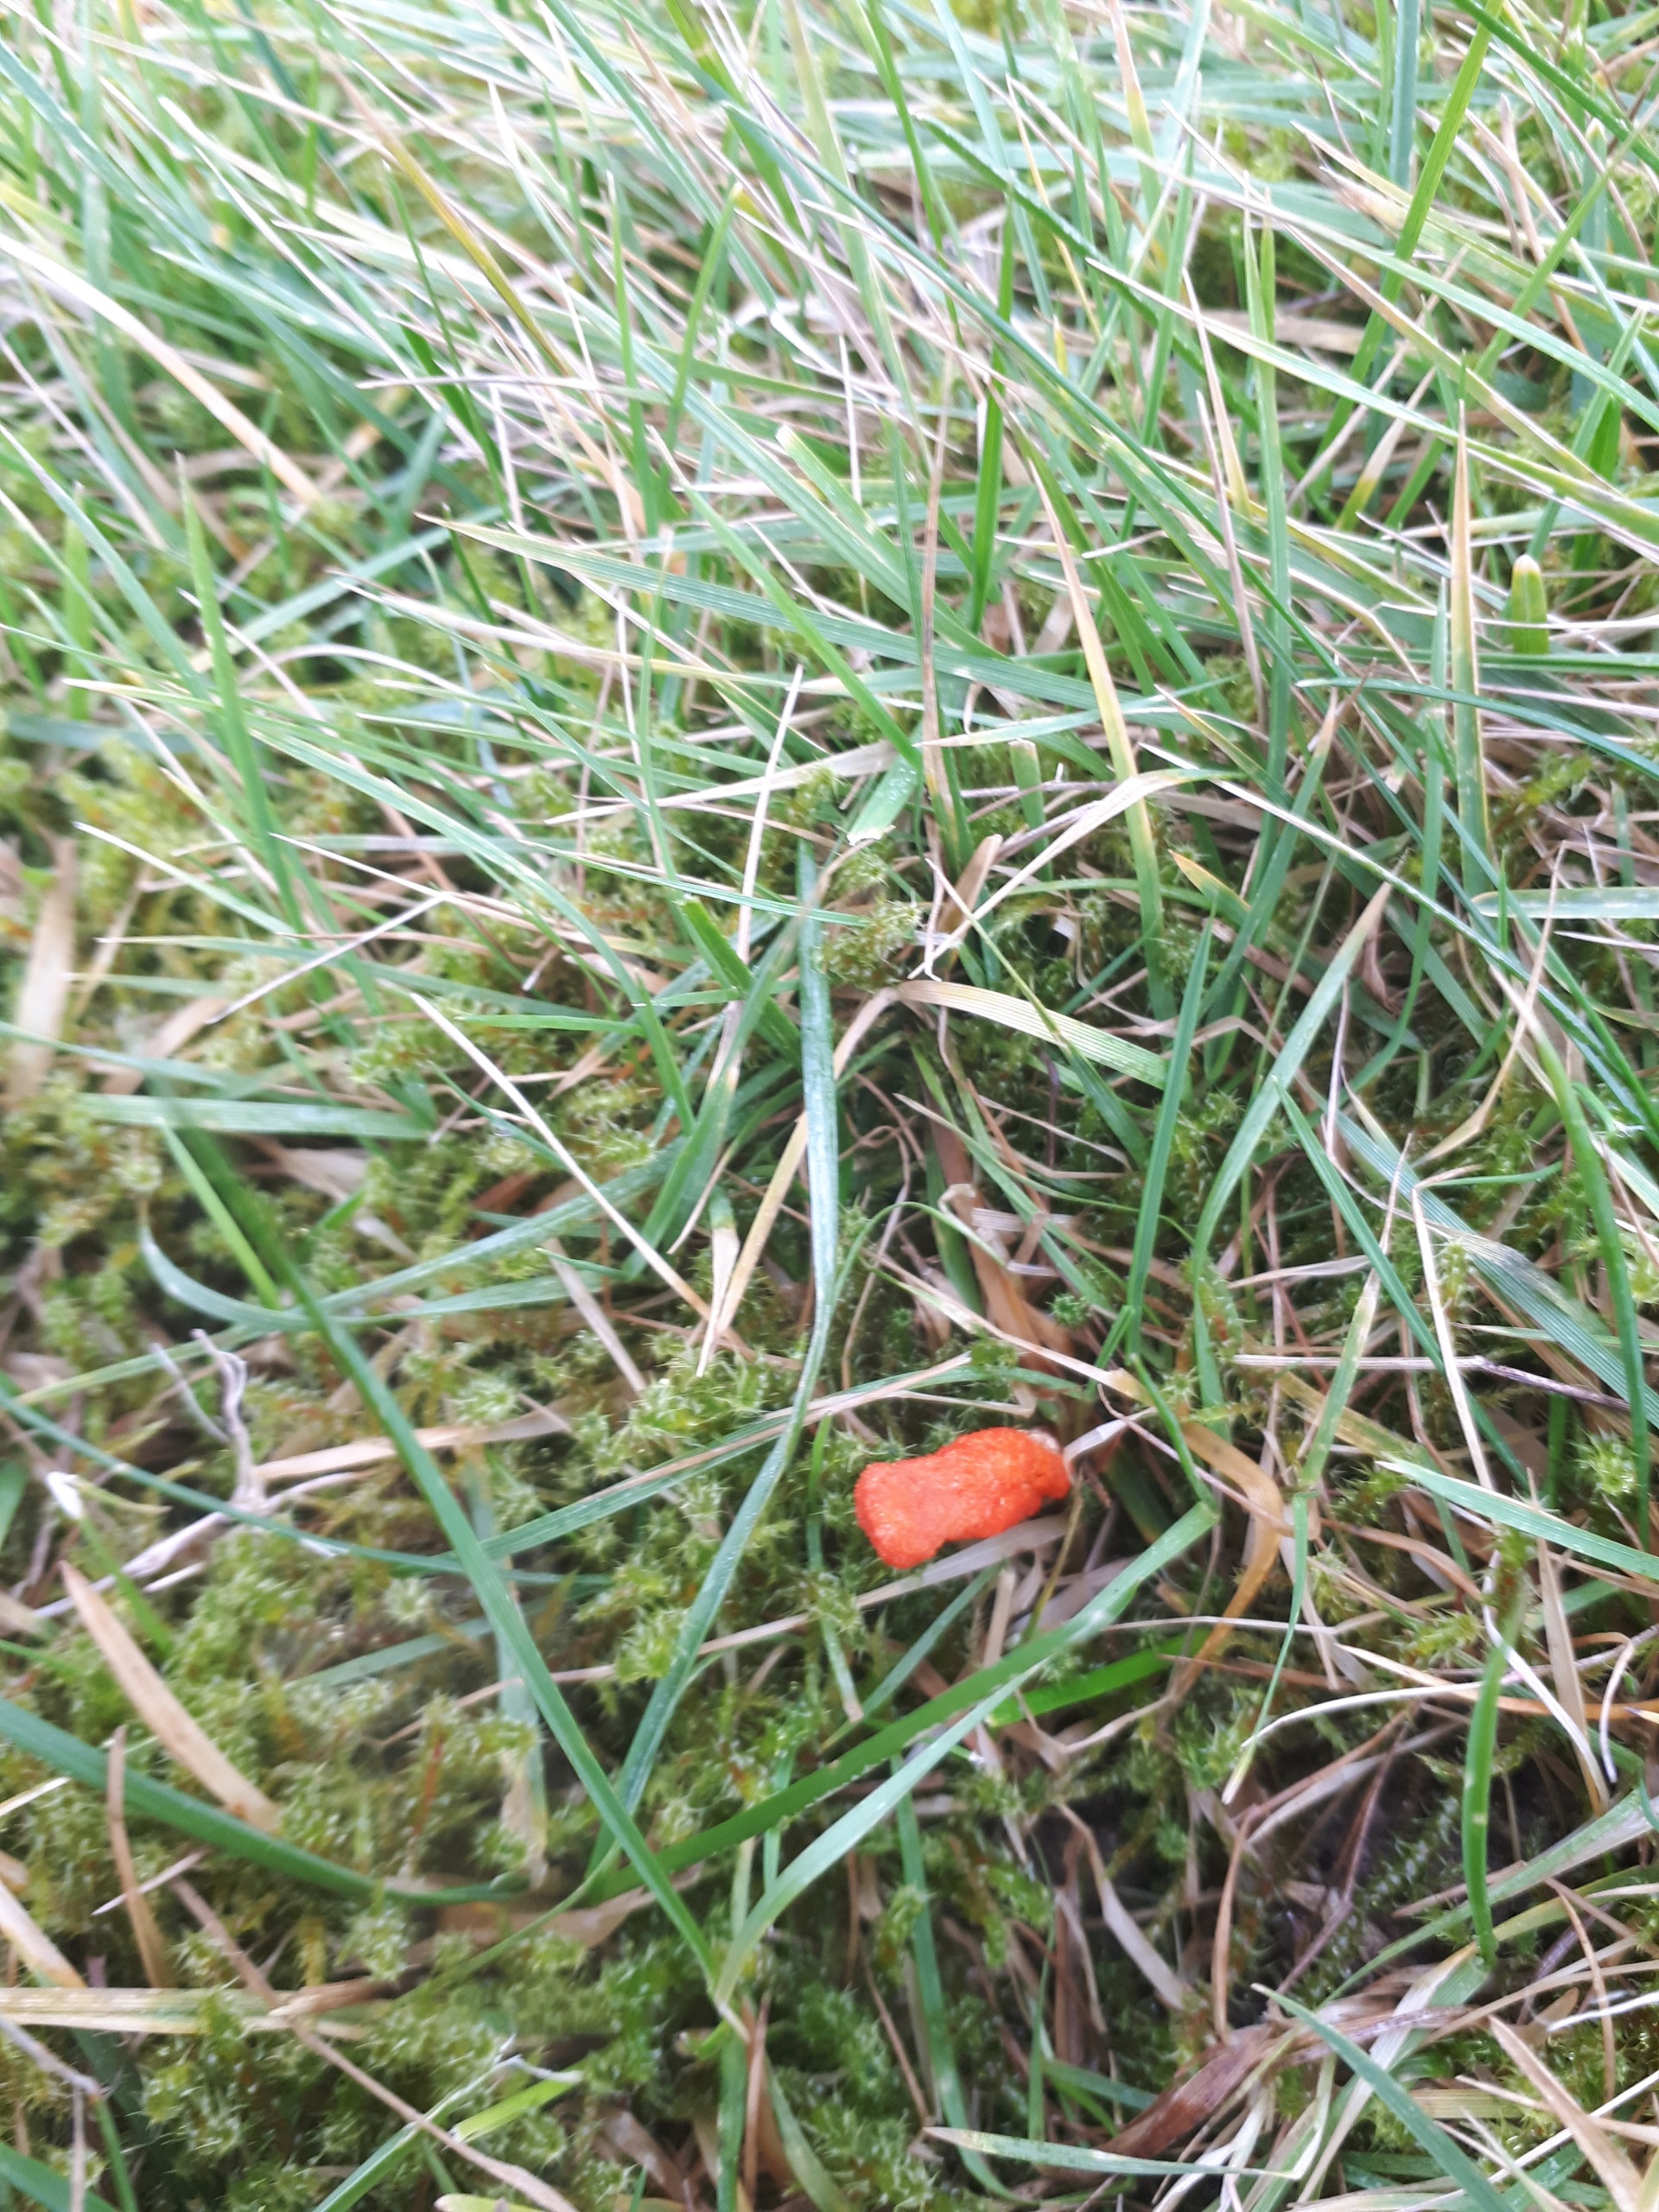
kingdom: Fungi
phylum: Ascomycota
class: Sordariomycetes
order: Hypocreales
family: Cordycipitaceae
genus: Cordyceps
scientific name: Cordyceps militaris
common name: Puppe-snyltekølle
